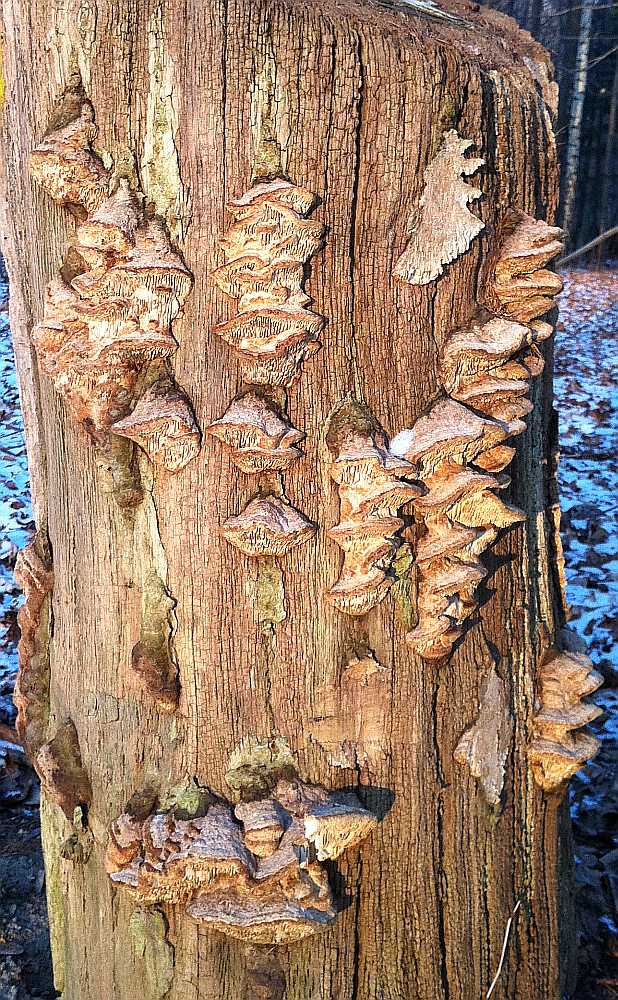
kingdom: Fungi
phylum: Basidiomycota
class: Agaricomycetes
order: Polyporales
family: Fomitopsidaceae
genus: Daedalea
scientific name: Daedalea quercina
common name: ege-labyrintsvamp
